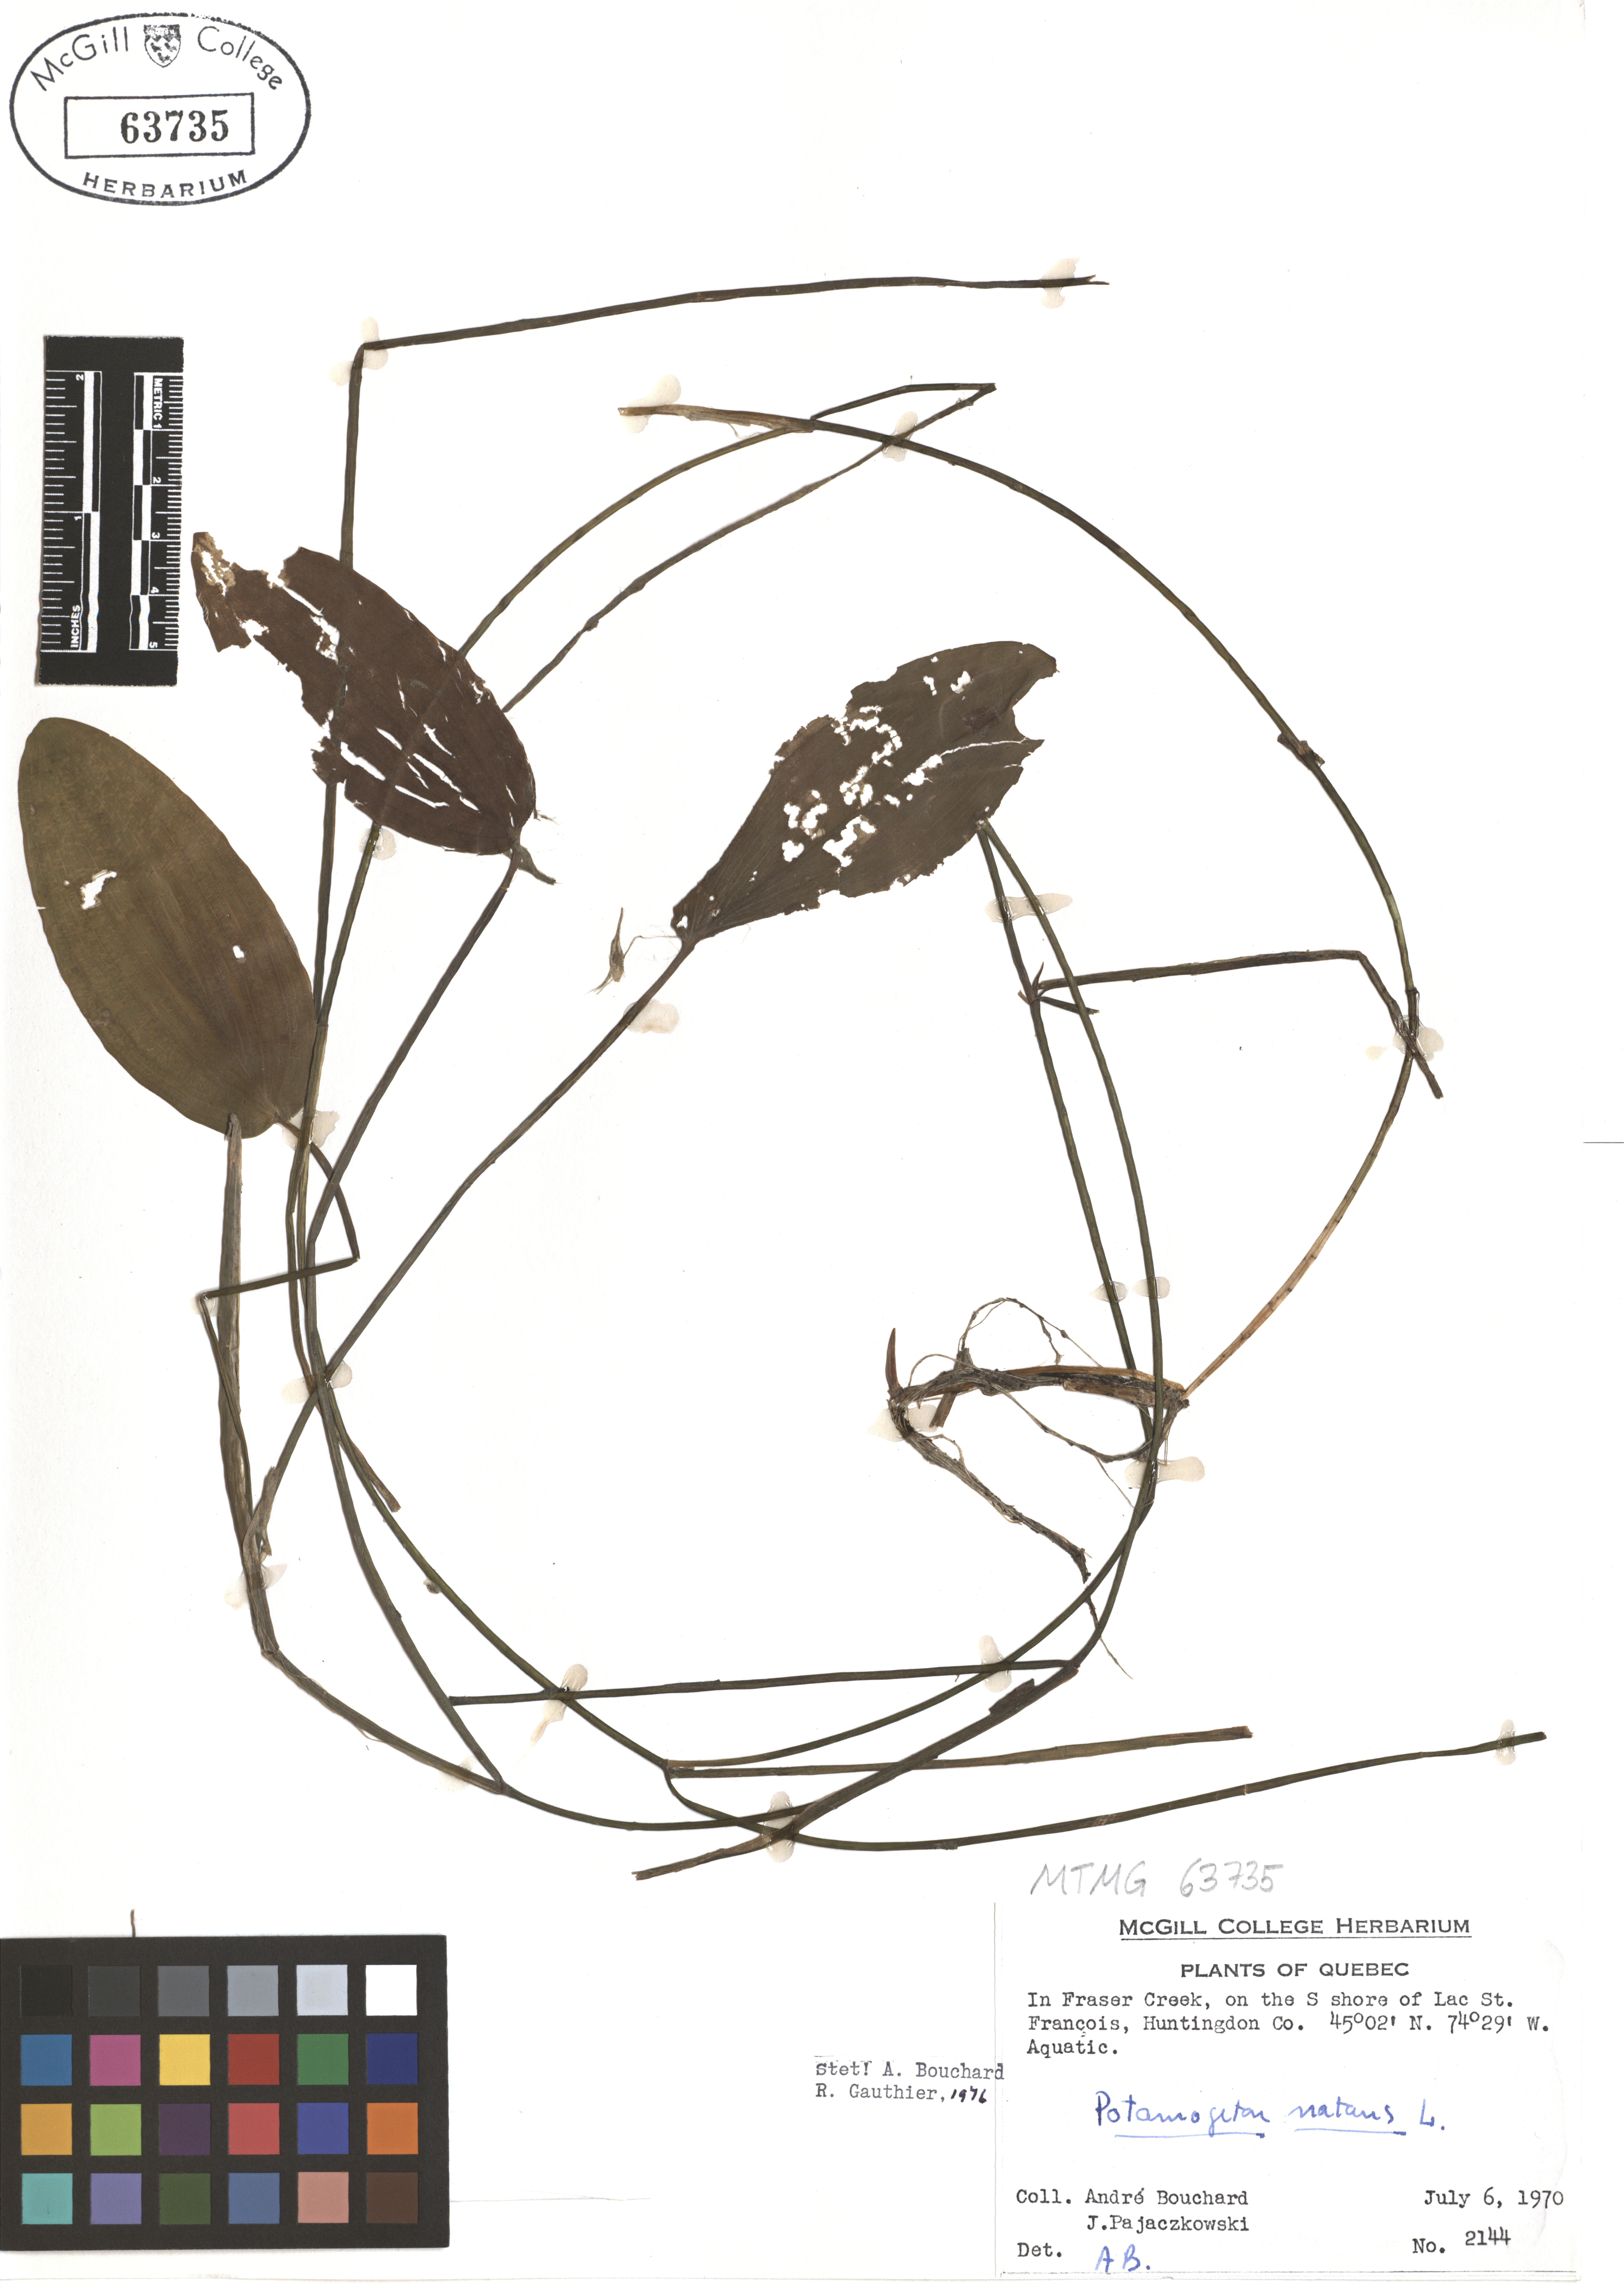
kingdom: Plantae
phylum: Tracheophyta
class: Liliopsida
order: Alismatales
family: Potamogetonaceae
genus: Potamogeton
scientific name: Potamogeton crispus
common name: Curled pondweed
